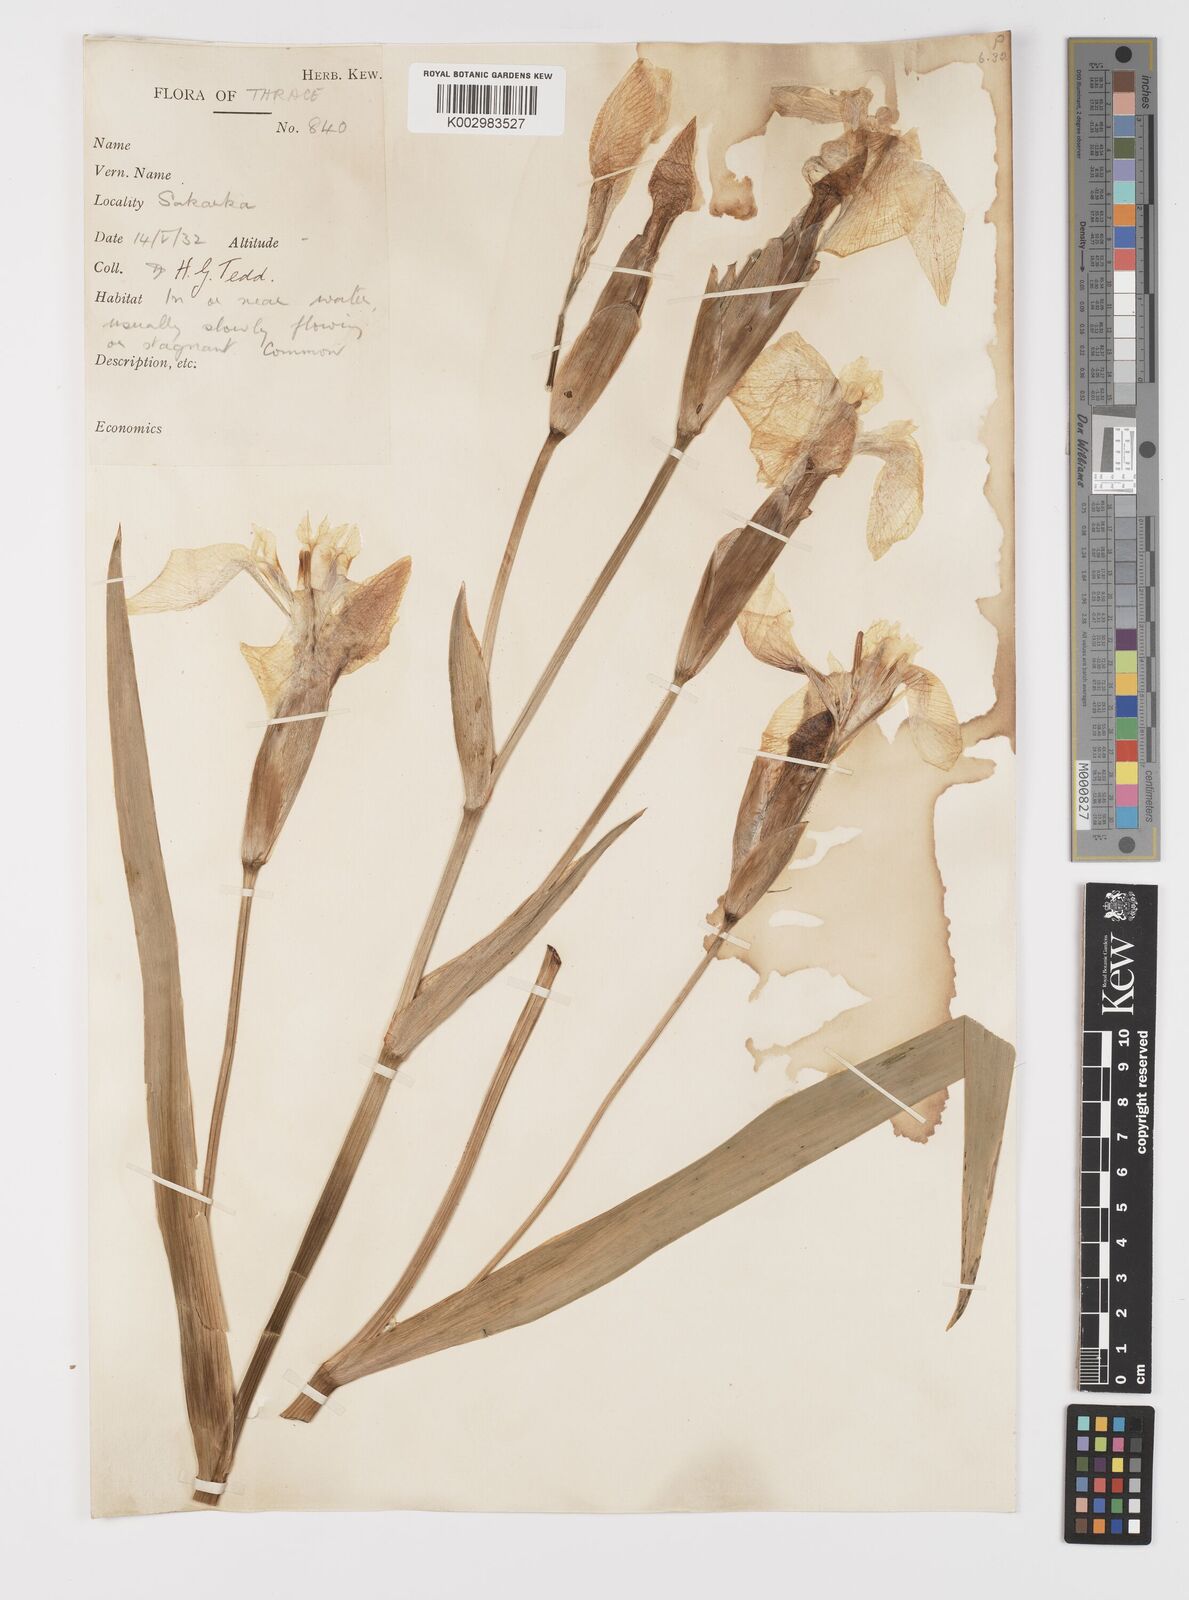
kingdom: Plantae
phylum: Tracheophyta
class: Liliopsida
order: Asparagales
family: Iridaceae
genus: Iris
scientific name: Iris pseudacorus
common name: Yellow flag
